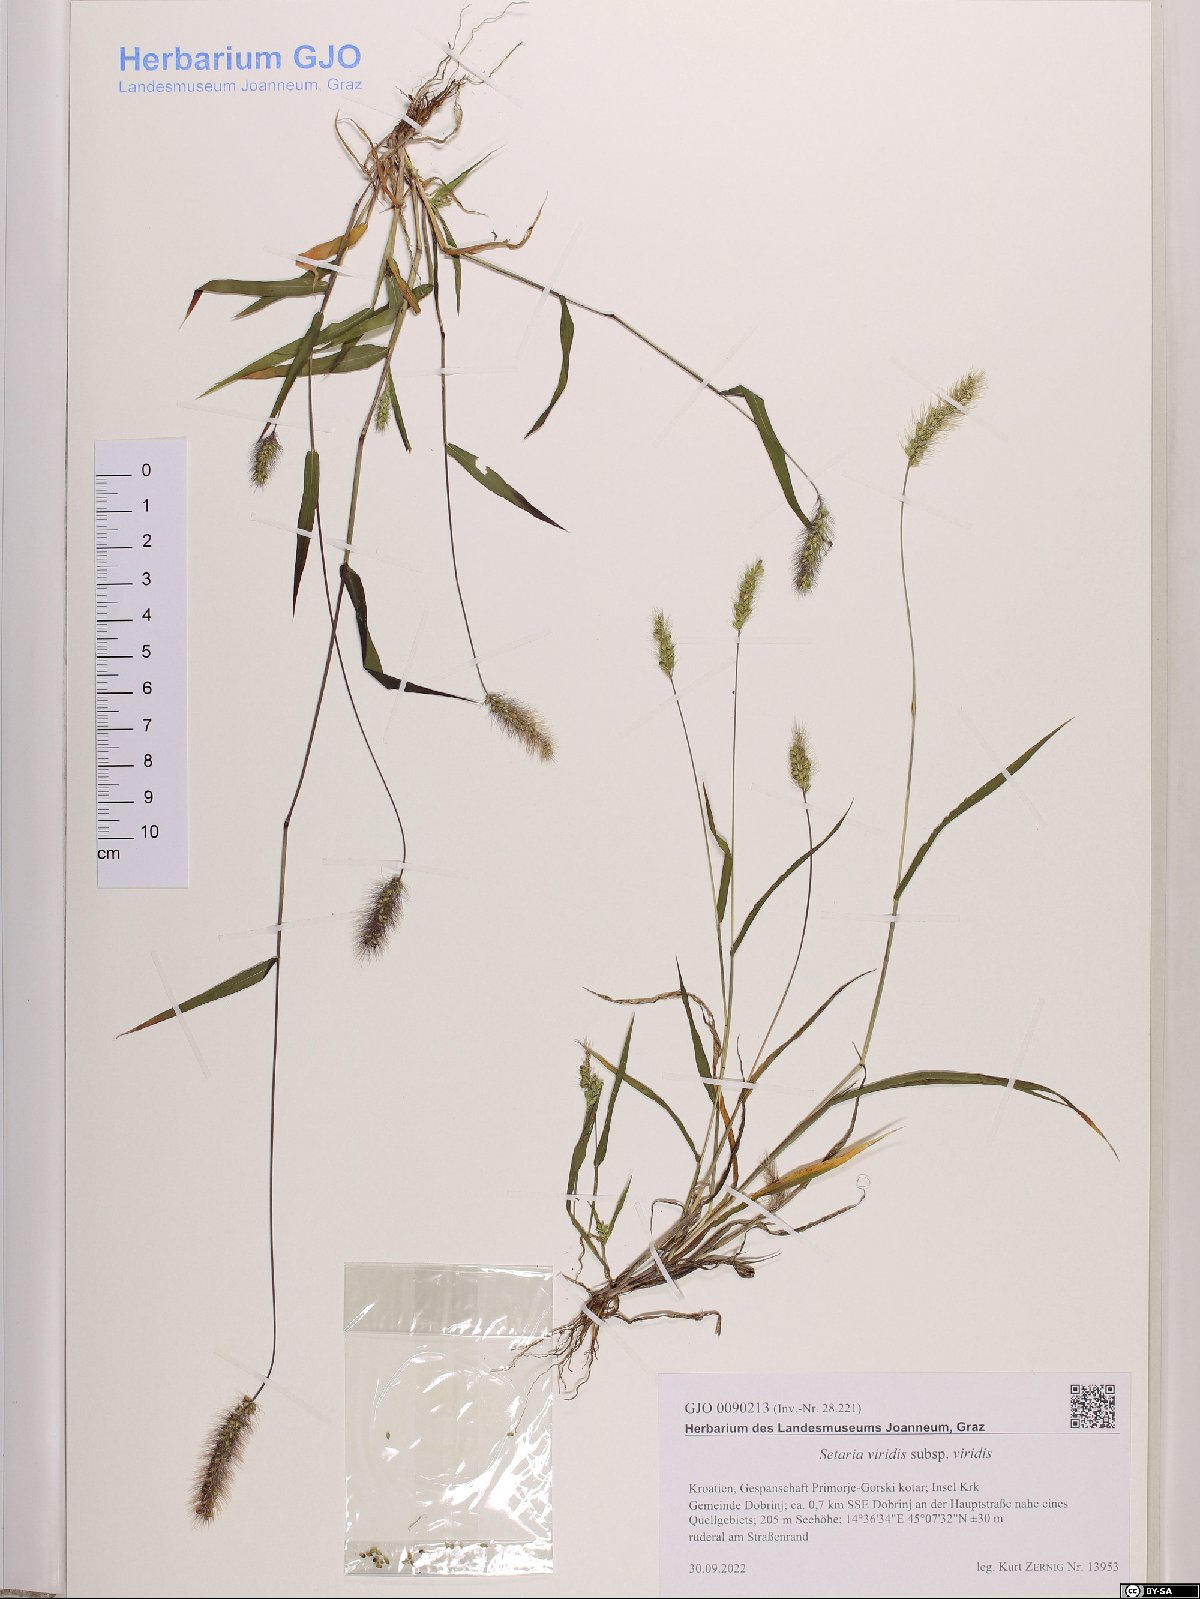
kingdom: Plantae
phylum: Tracheophyta
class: Liliopsida
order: Poales
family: Poaceae
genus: Setaria
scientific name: Setaria viridis
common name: Green bristlegrass
